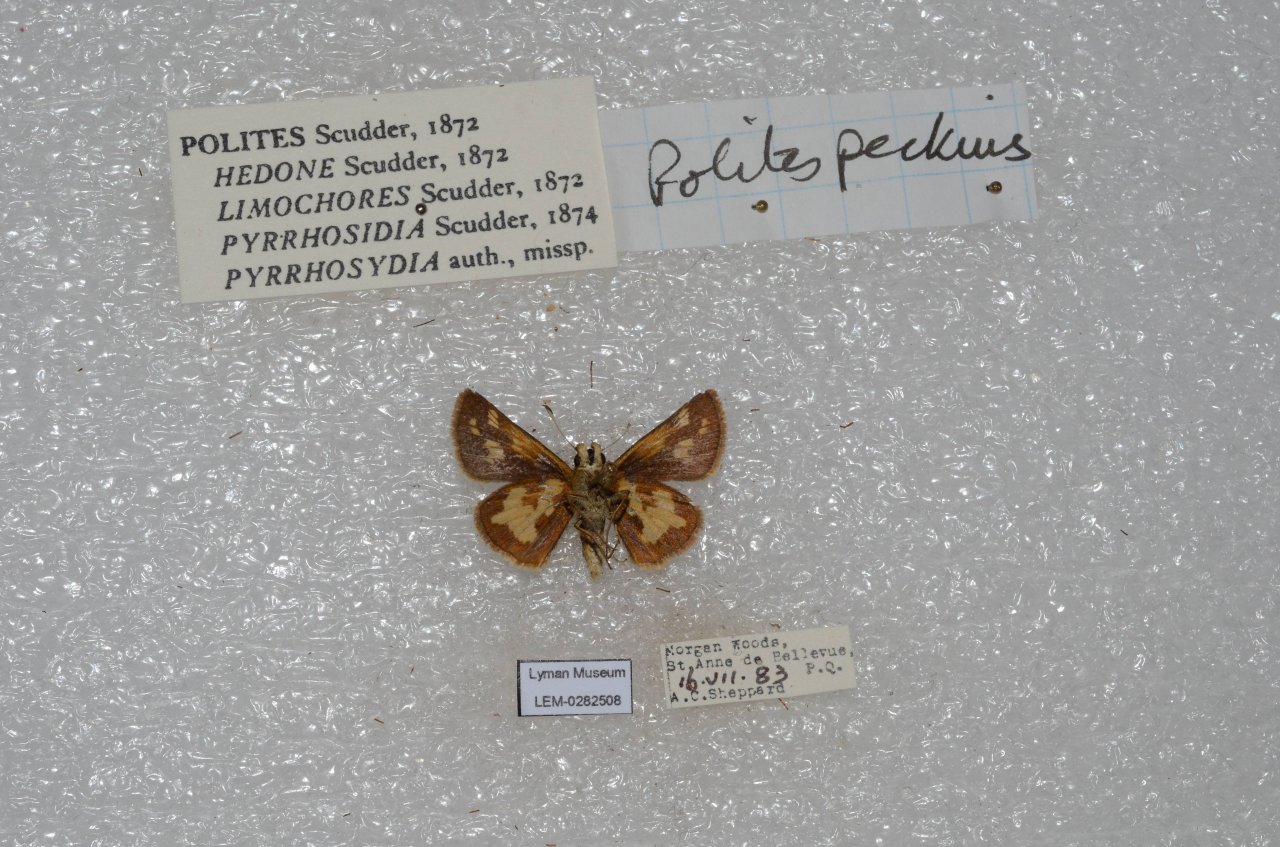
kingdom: Animalia
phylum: Arthropoda
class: Insecta
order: Lepidoptera
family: Hesperiidae
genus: Polites
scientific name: Polites coras
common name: Peck's Skipper
